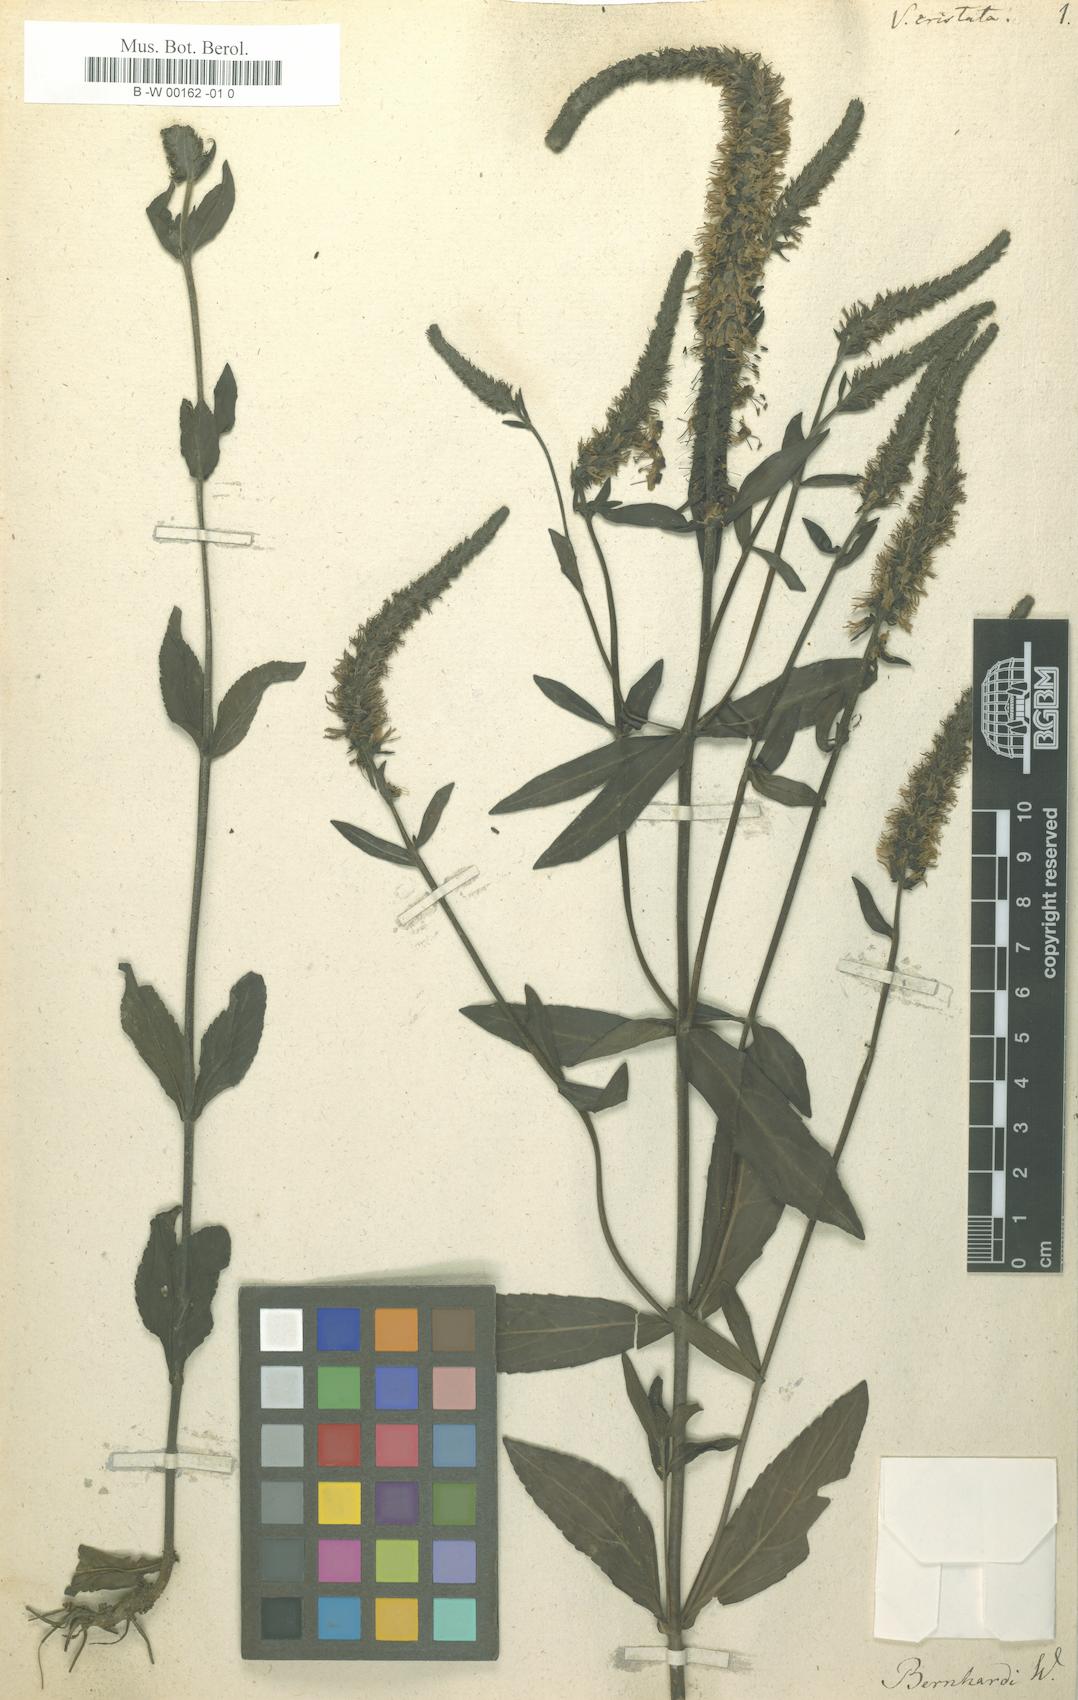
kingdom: Plantae
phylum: Tracheophyta
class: Magnoliopsida
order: Lamiales
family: Plantaginaceae
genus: Veronica
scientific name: Veronica orchidea
